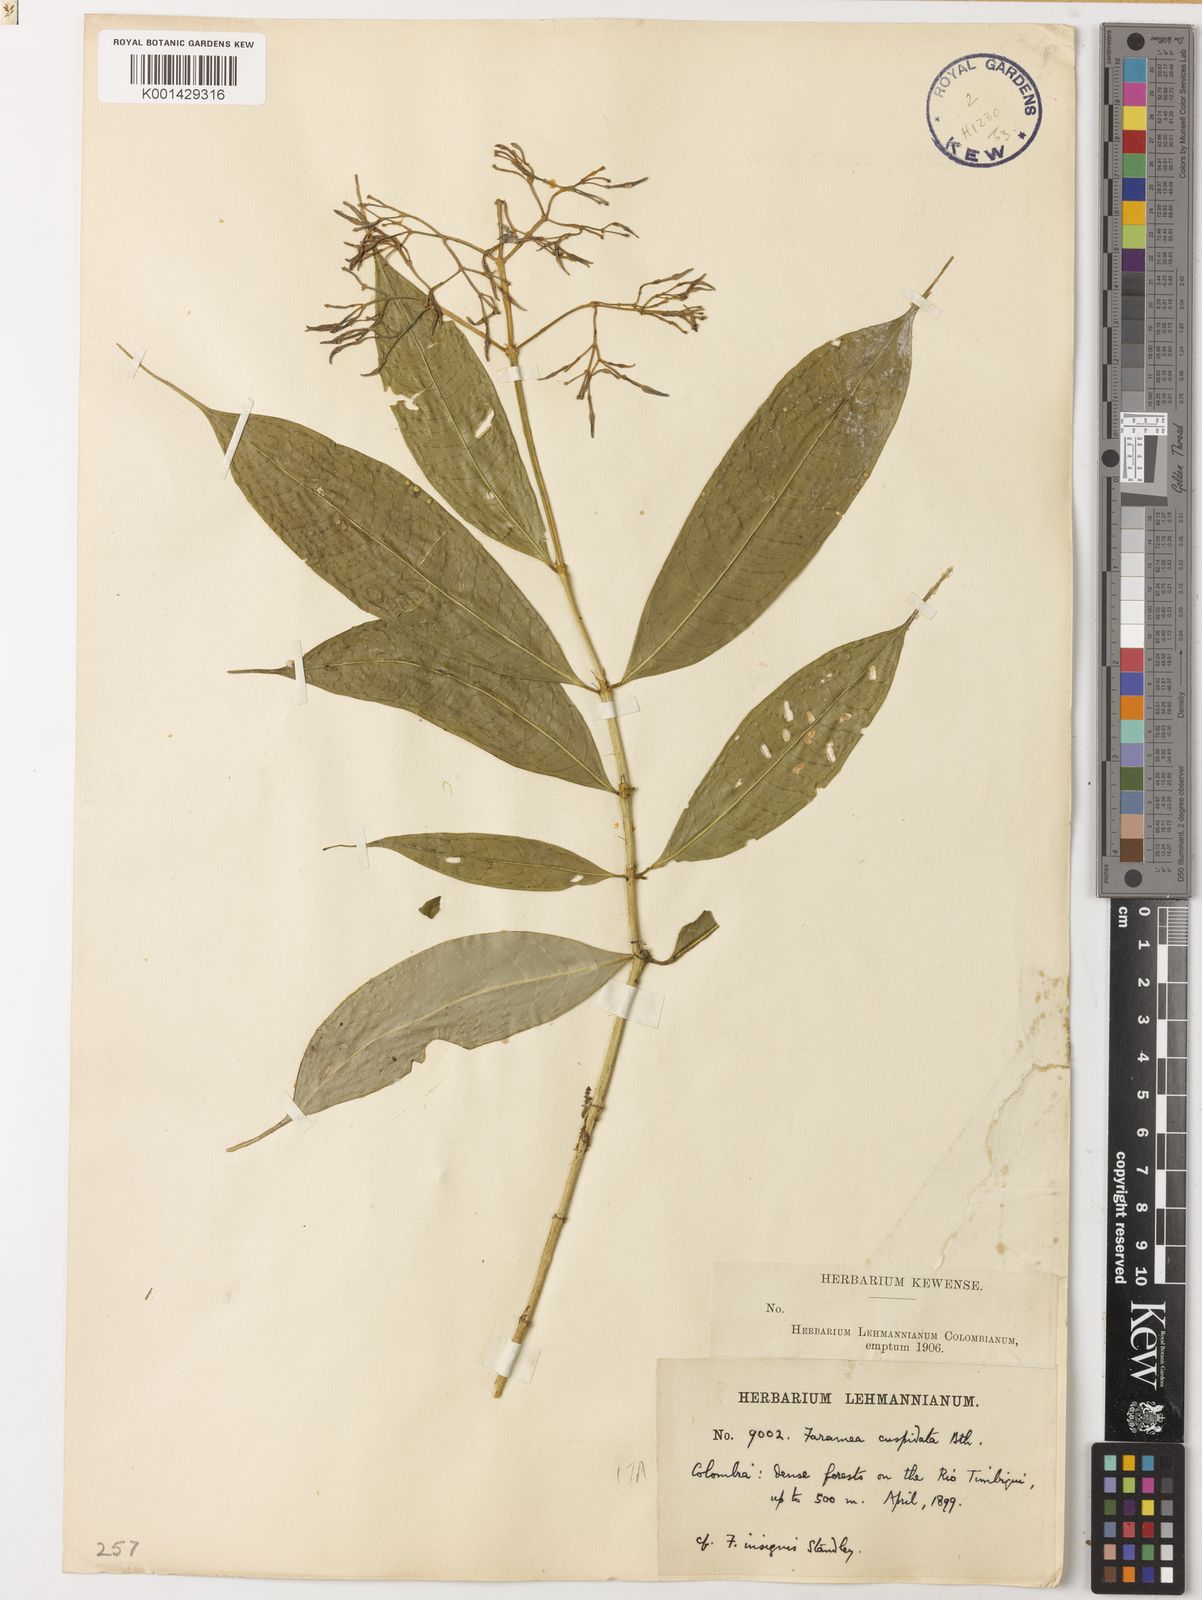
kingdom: Plantae
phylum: Tracheophyta
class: Magnoliopsida
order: Gentianales
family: Rubiaceae
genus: Faramea
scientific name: Faramea cuspidata
